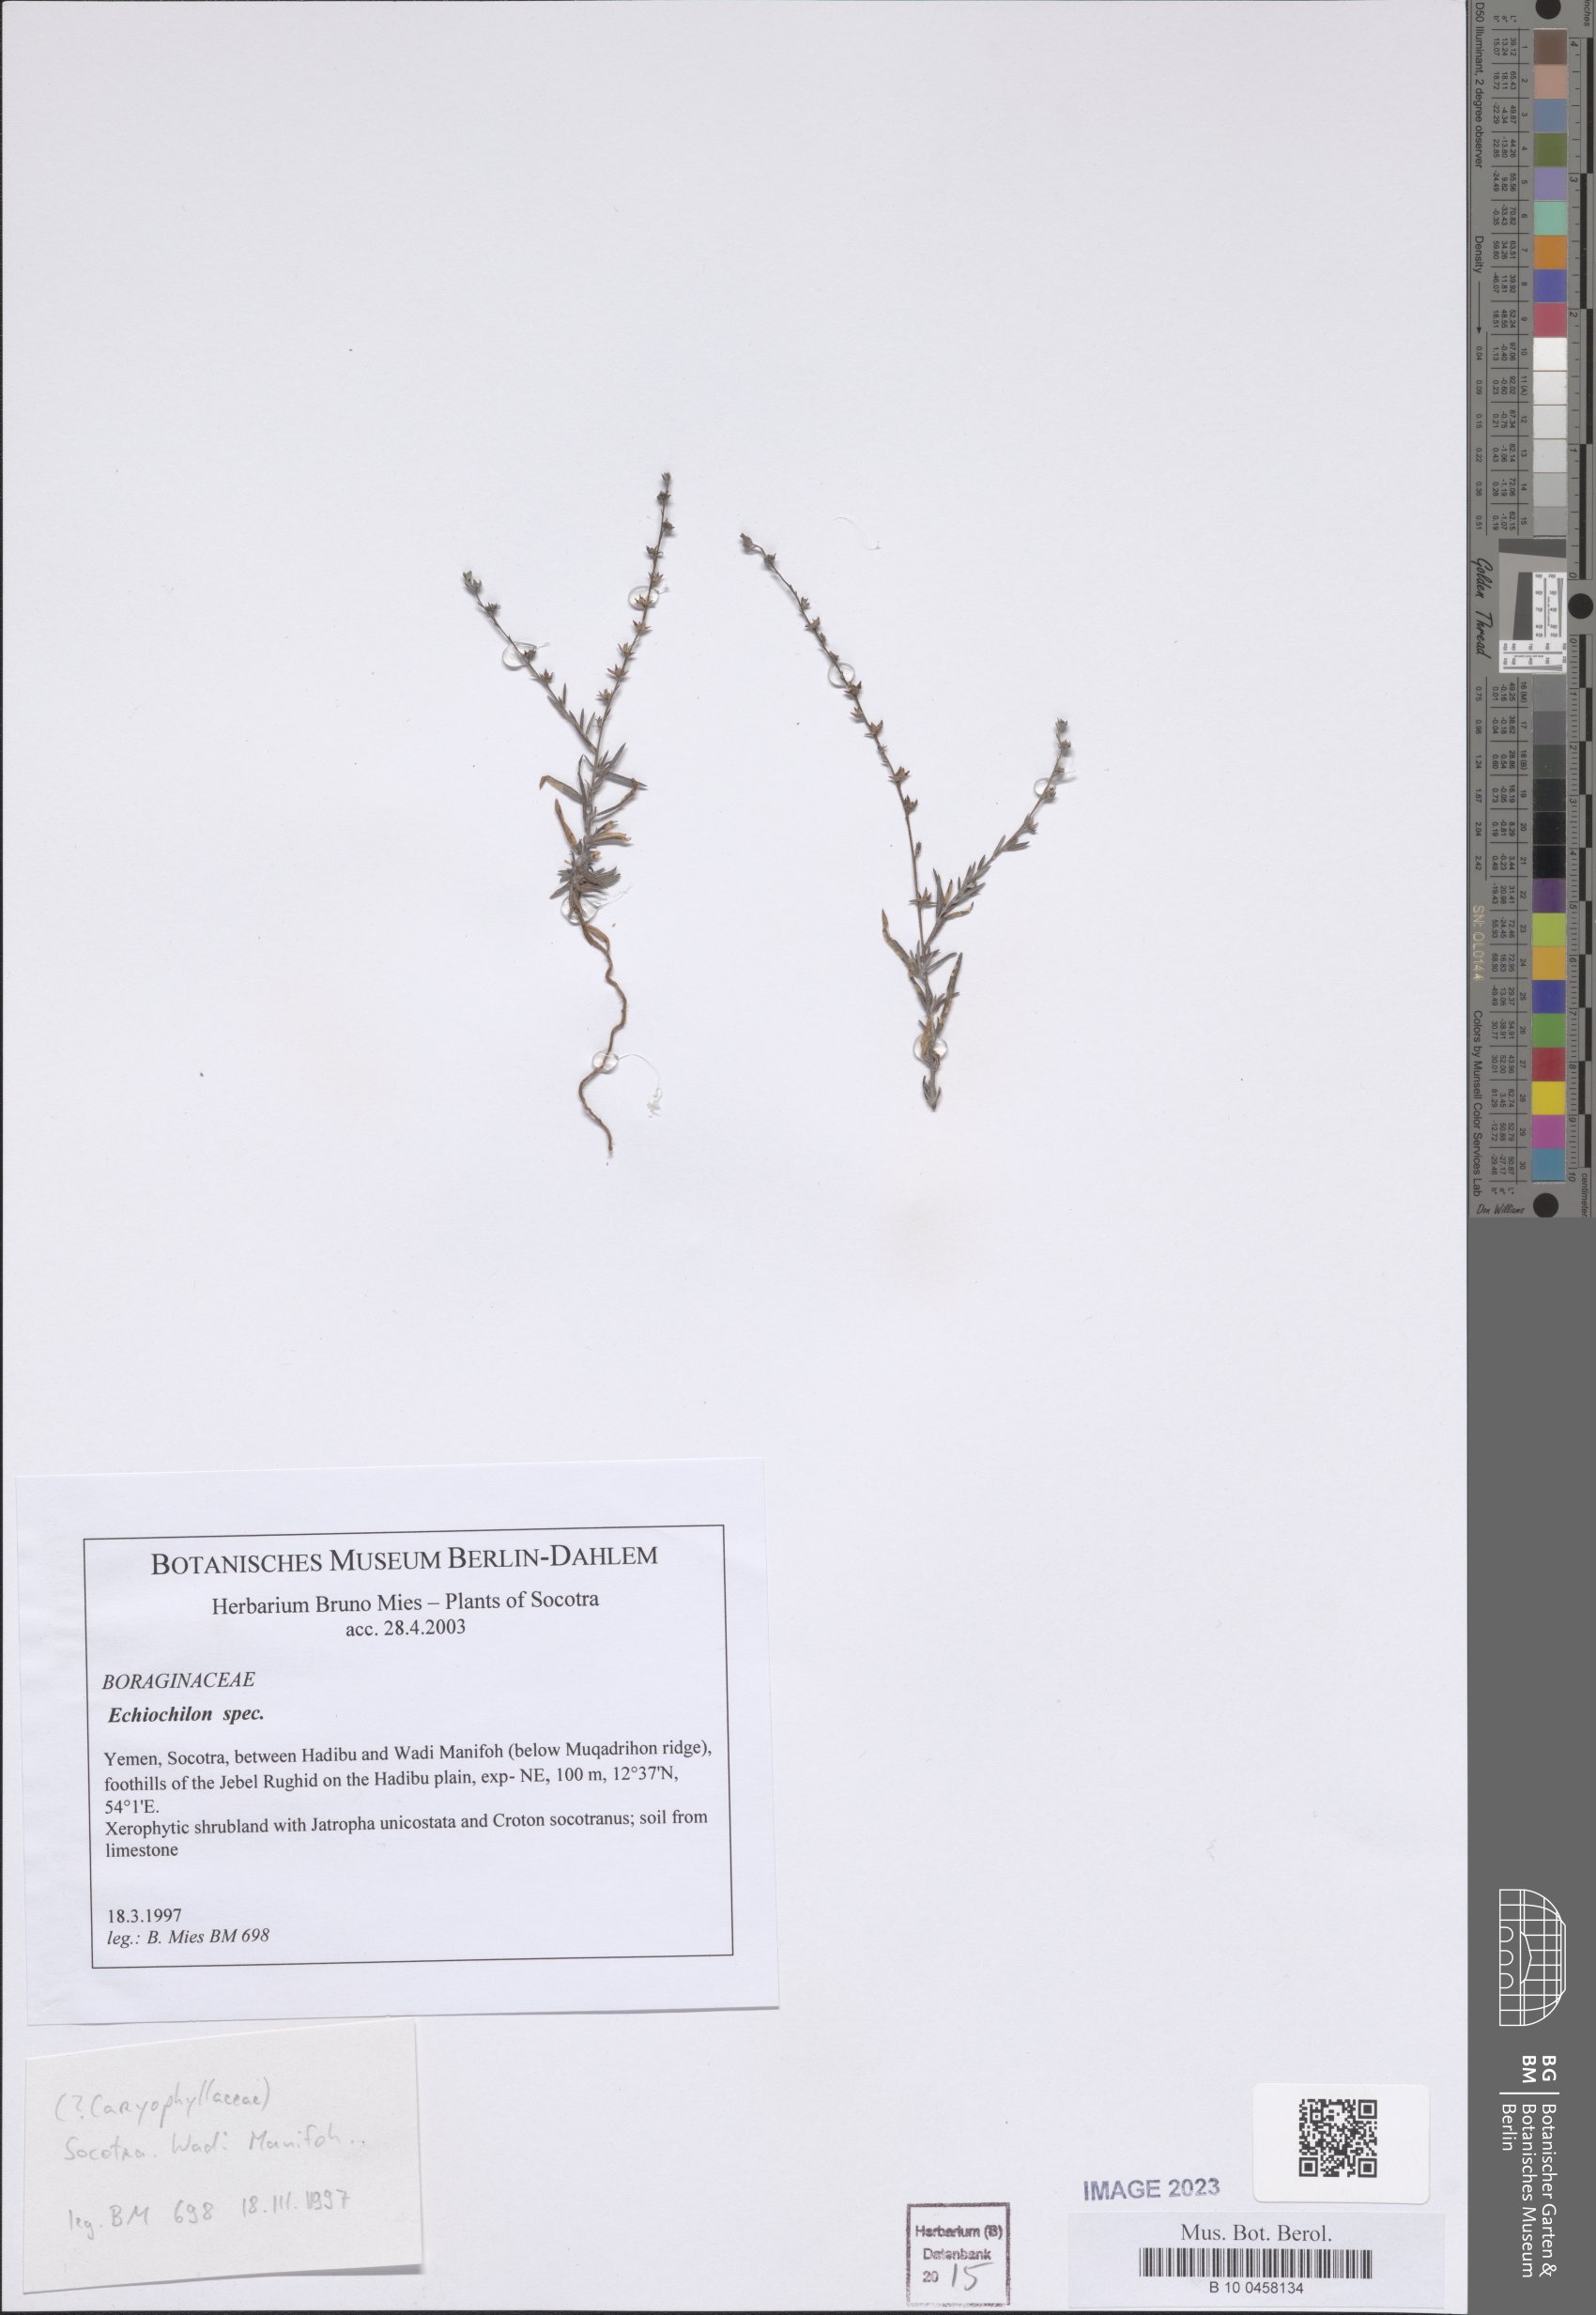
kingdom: Plantae
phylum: Tracheophyta
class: Magnoliopsida
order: Boraginales
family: Boraginaceae
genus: Echiochilon
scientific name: Echiochilon
